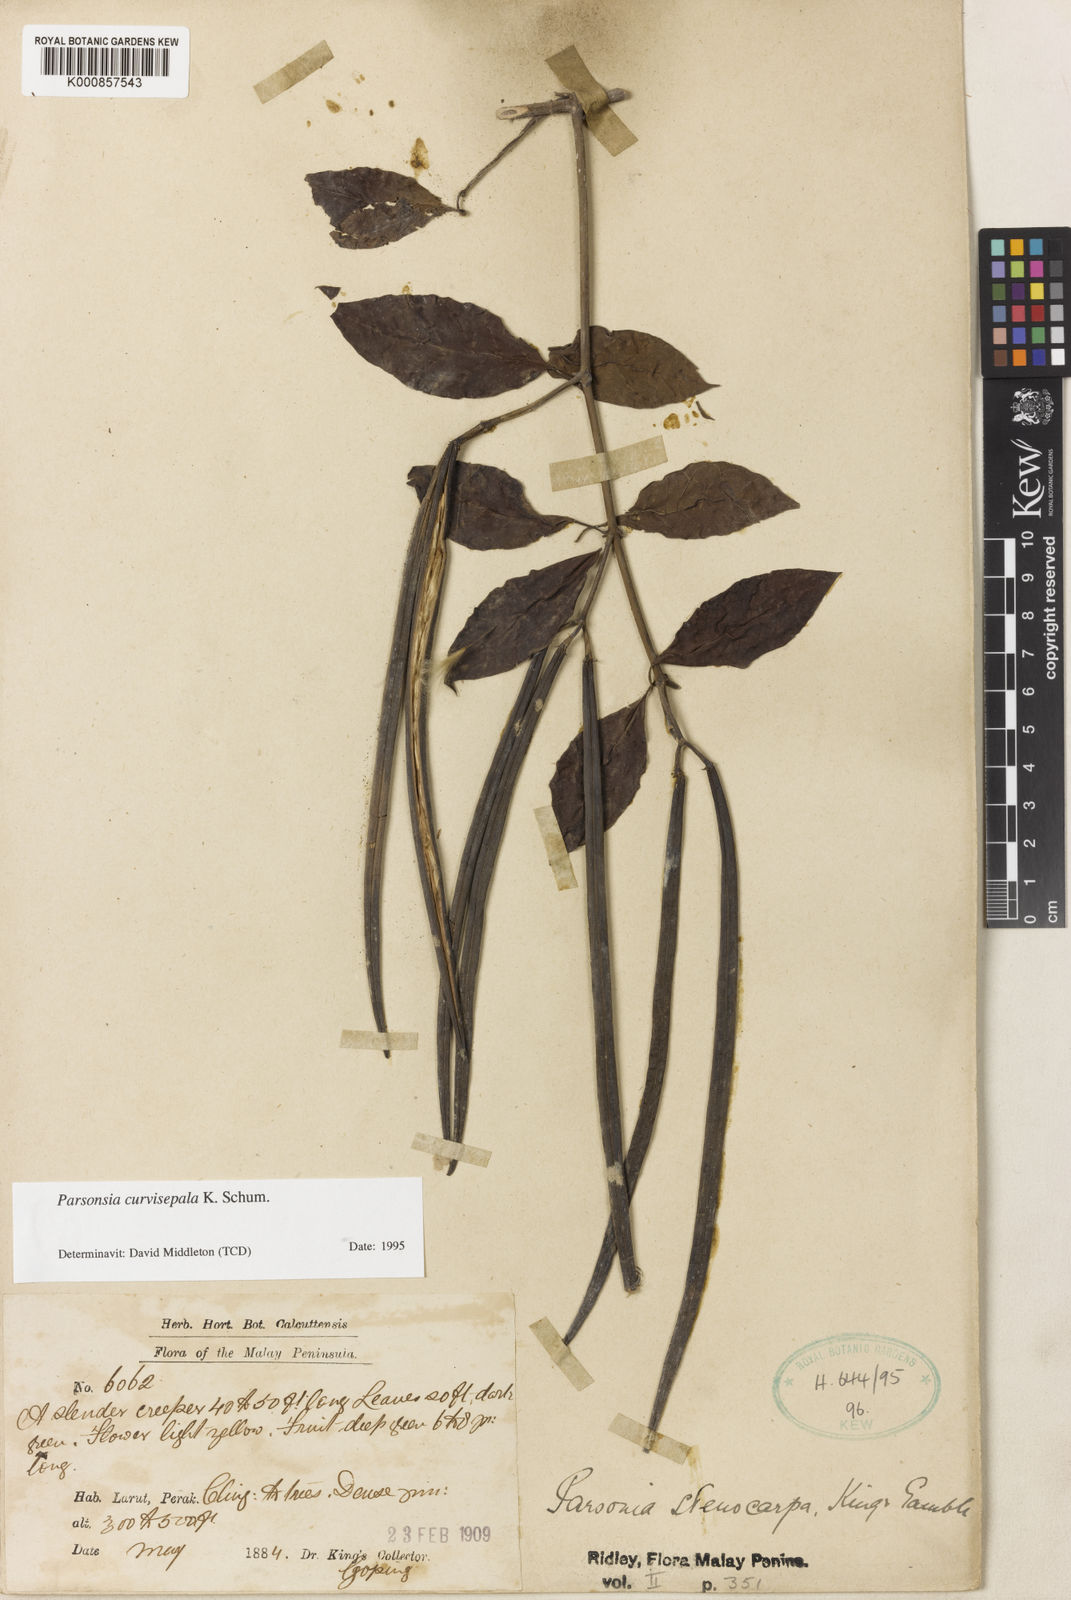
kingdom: Plantae
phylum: Tracheophyta
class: Magnoliopsida
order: Gentianales
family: Apocynaceae
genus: Parsonsia
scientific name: Parsonsia curvisepala
